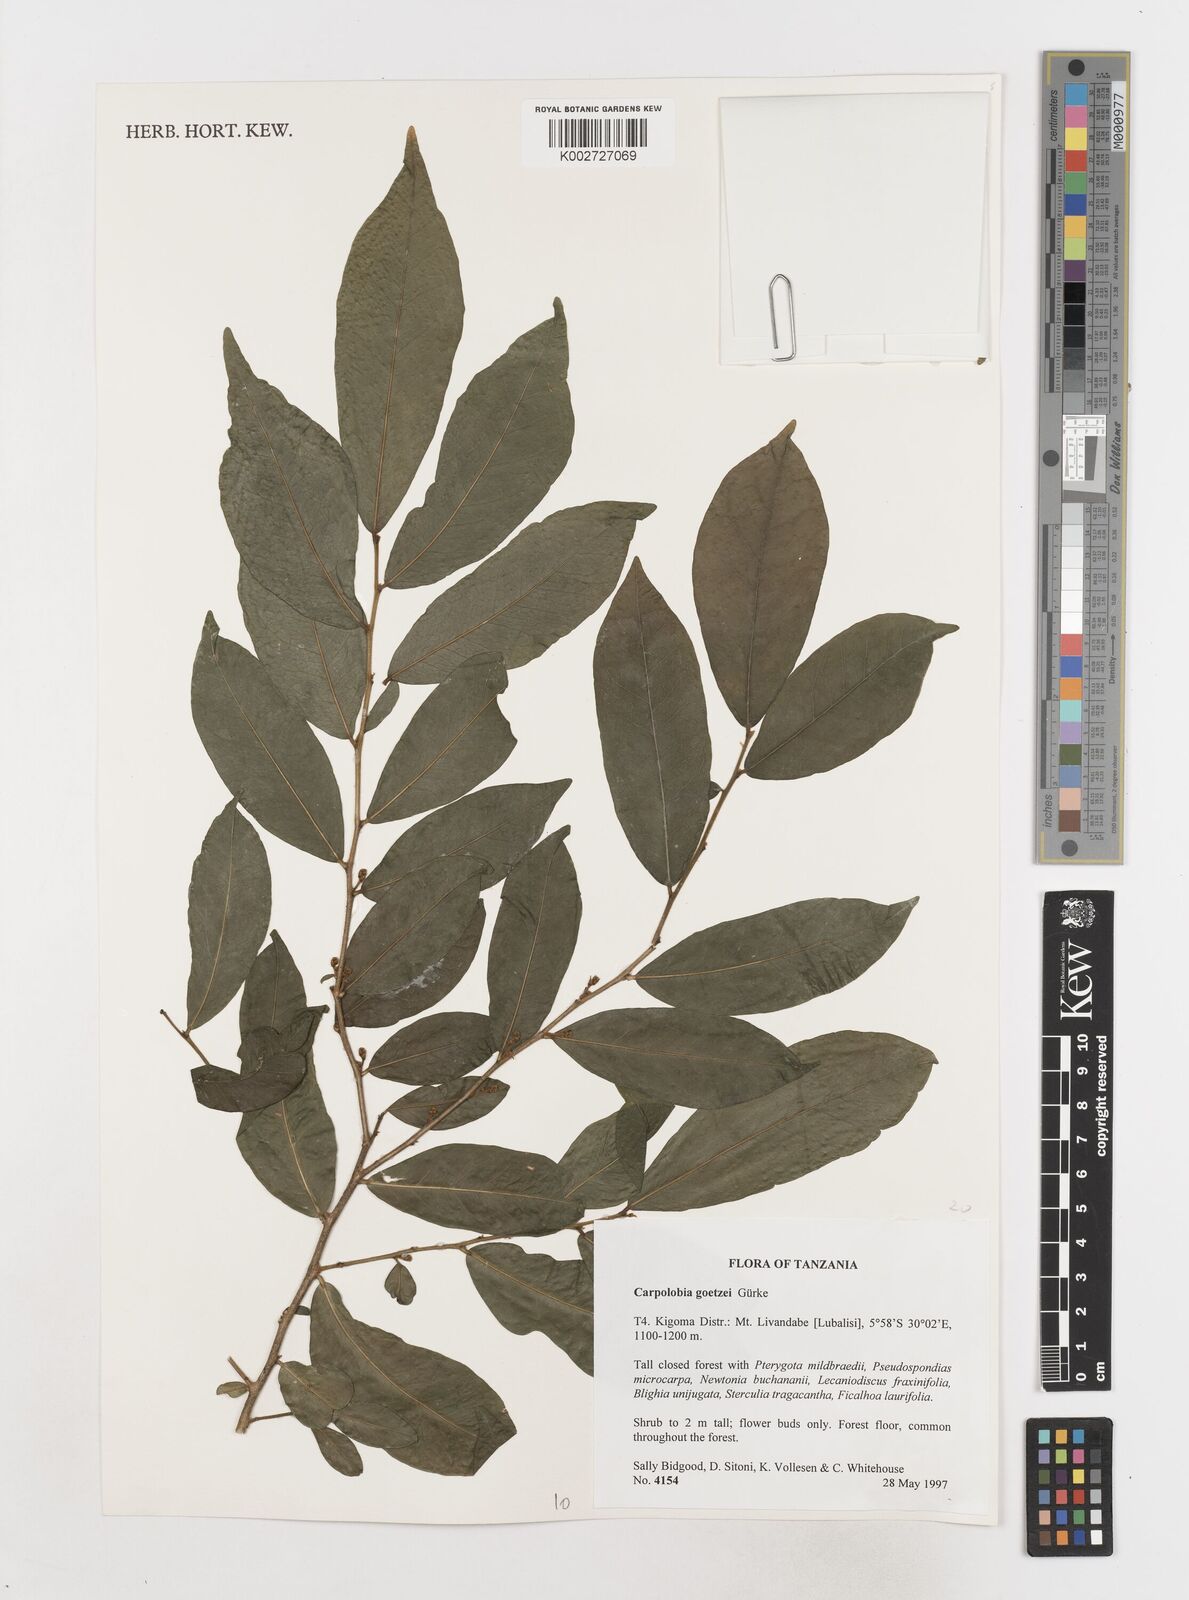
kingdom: Plantae
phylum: Tracheophyta
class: Magnoliopsida
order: Fabales
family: Polygalaceae
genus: Carpolobia
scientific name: Carpolobia goetzei
